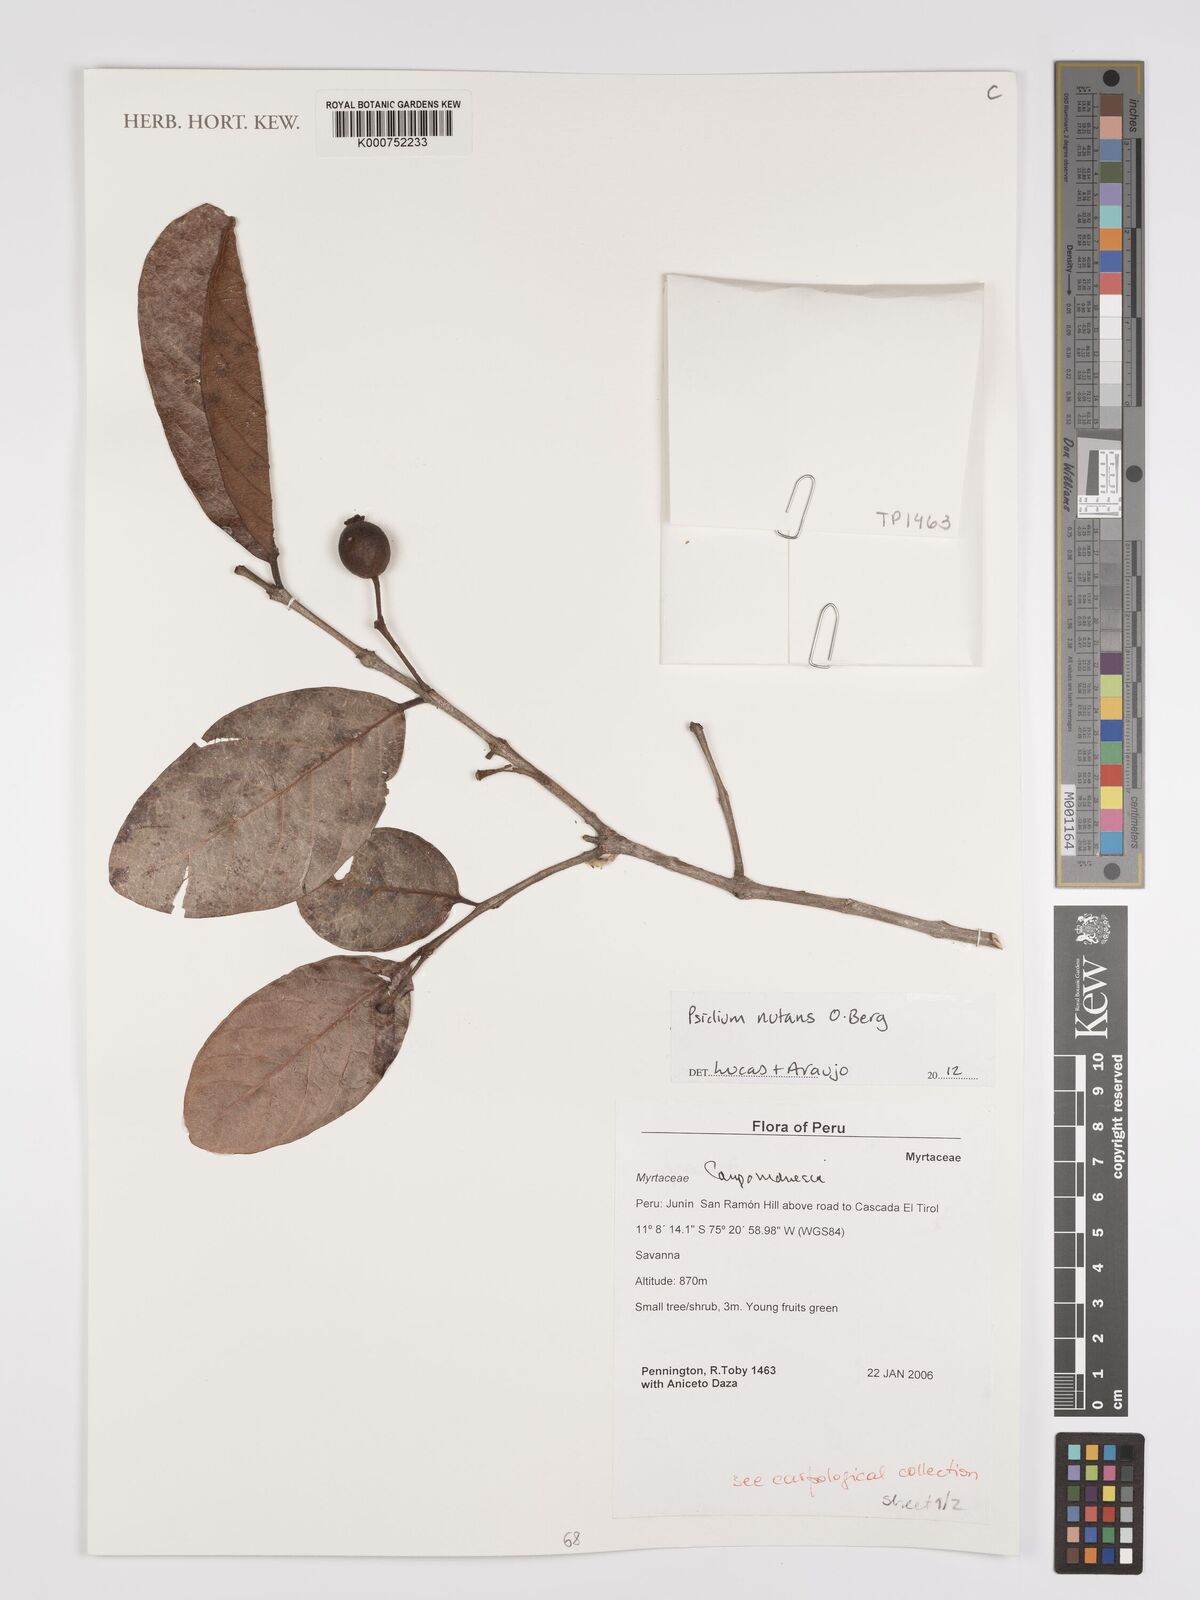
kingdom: Plantae
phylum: Tracheophyta
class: Magnoliopsida
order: Myrtales
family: Myrtaceae
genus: Psidium
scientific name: Psidium nutans
